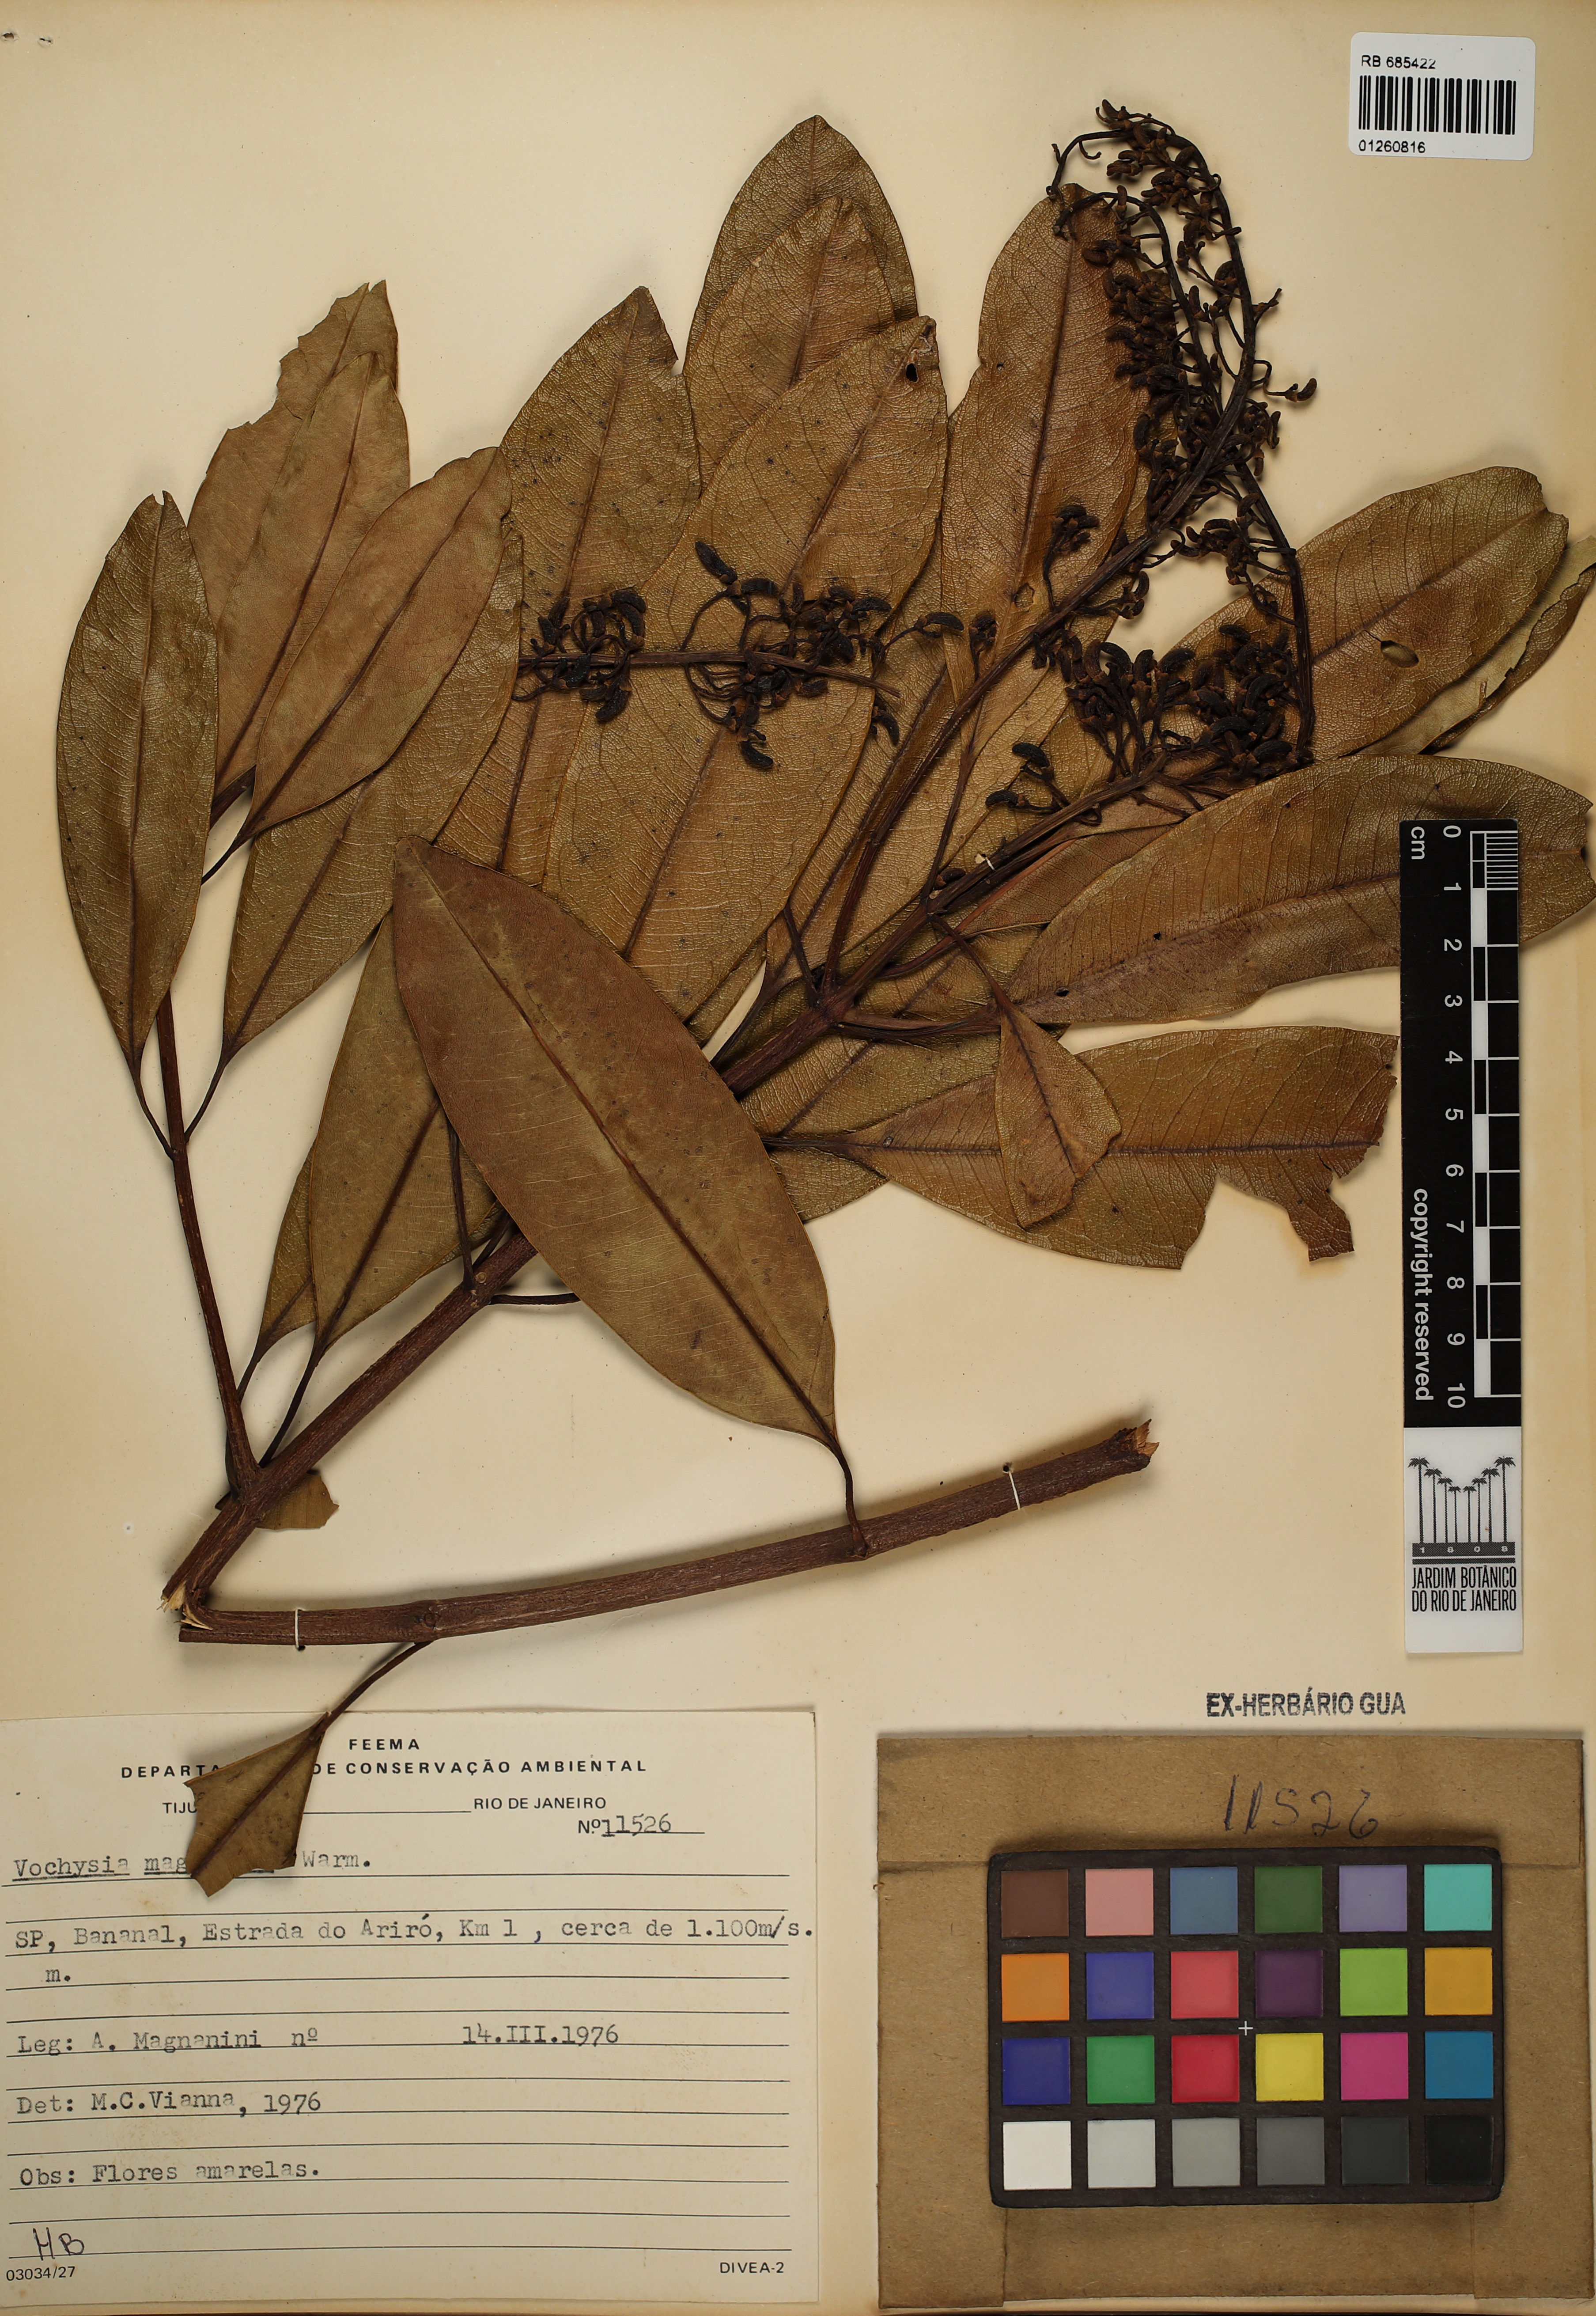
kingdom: Plantae
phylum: Tracheophyta
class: Magnoliopsida
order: Myrtales
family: Vochysiaceae
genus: Vochysia
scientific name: Vochysia magnifica
